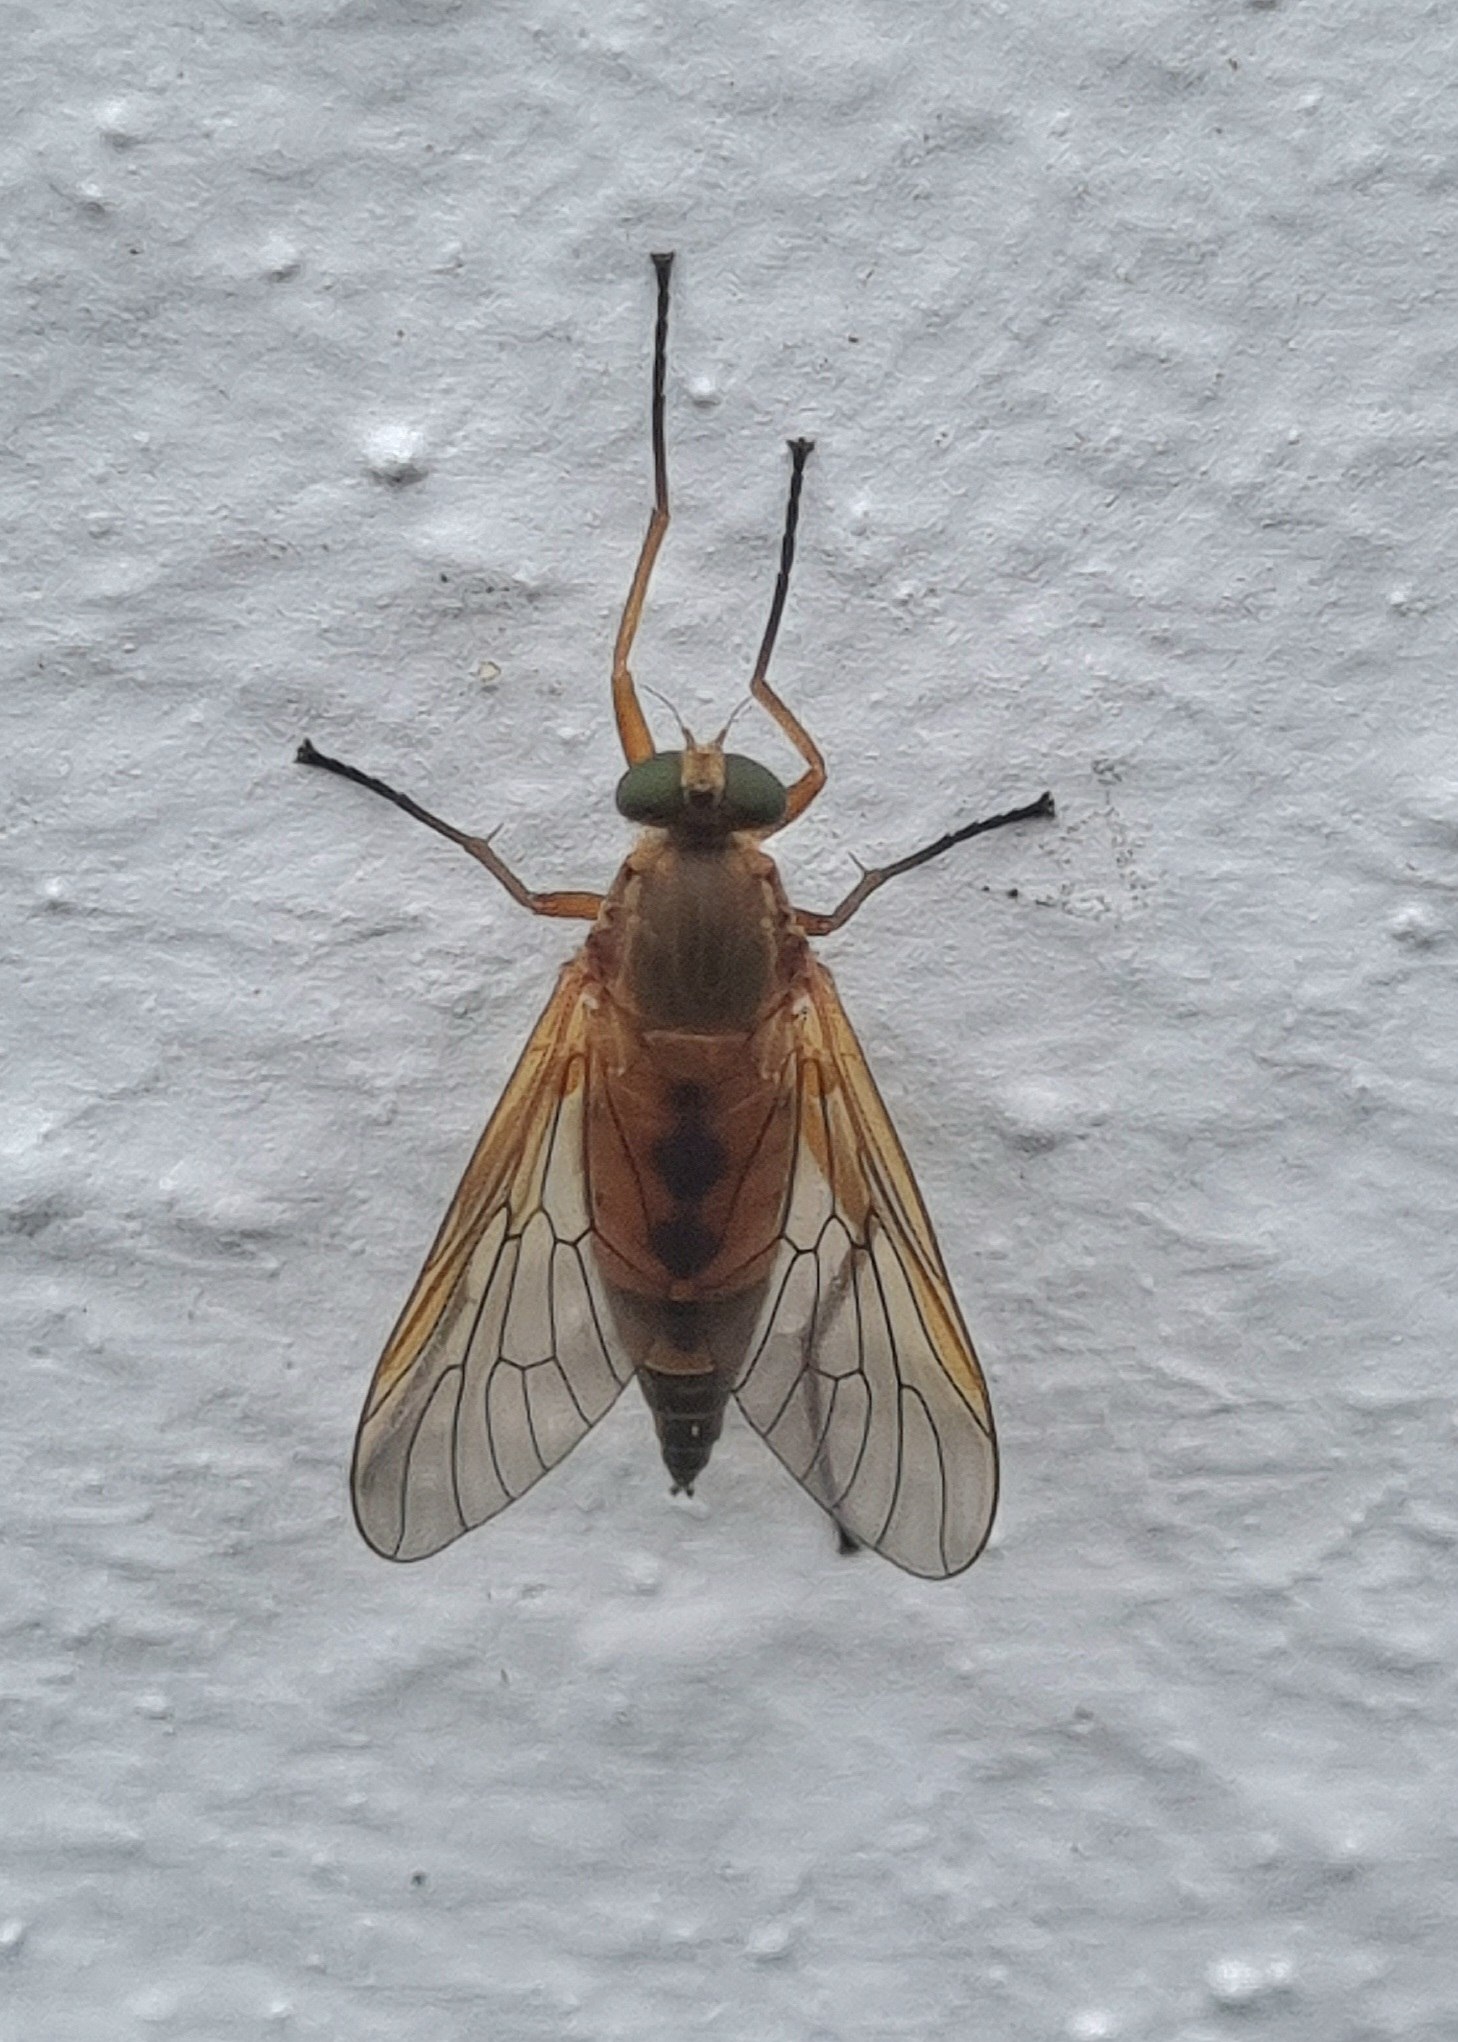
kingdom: Animalia
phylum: Arthropoda
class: Insecta
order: Diptera
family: Rhagionidae
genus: Rhagio
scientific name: Rhagio tringaria
